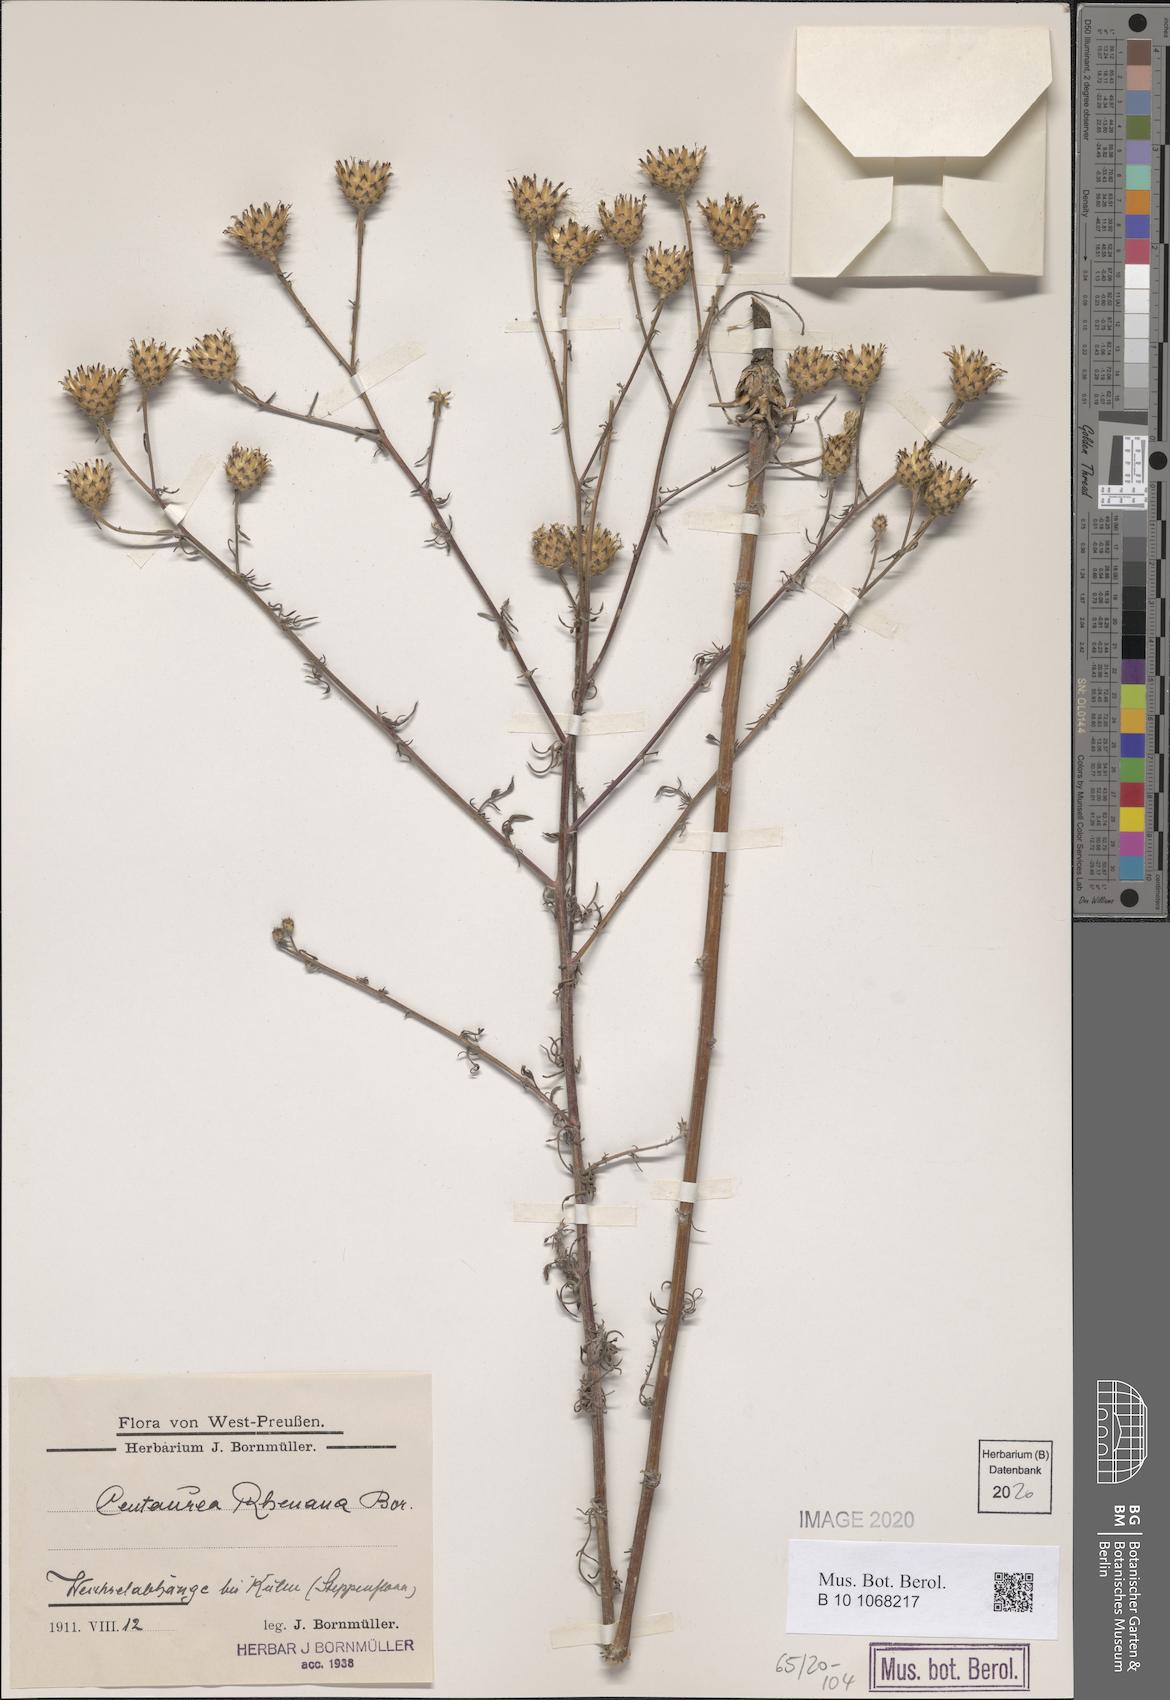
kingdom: Plantae
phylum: Tracheophyta
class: Magnoliopsida
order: Asterales
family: Asteraceae
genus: Centaurea
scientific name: Centaurea stoebe
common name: Spotted knapweed
